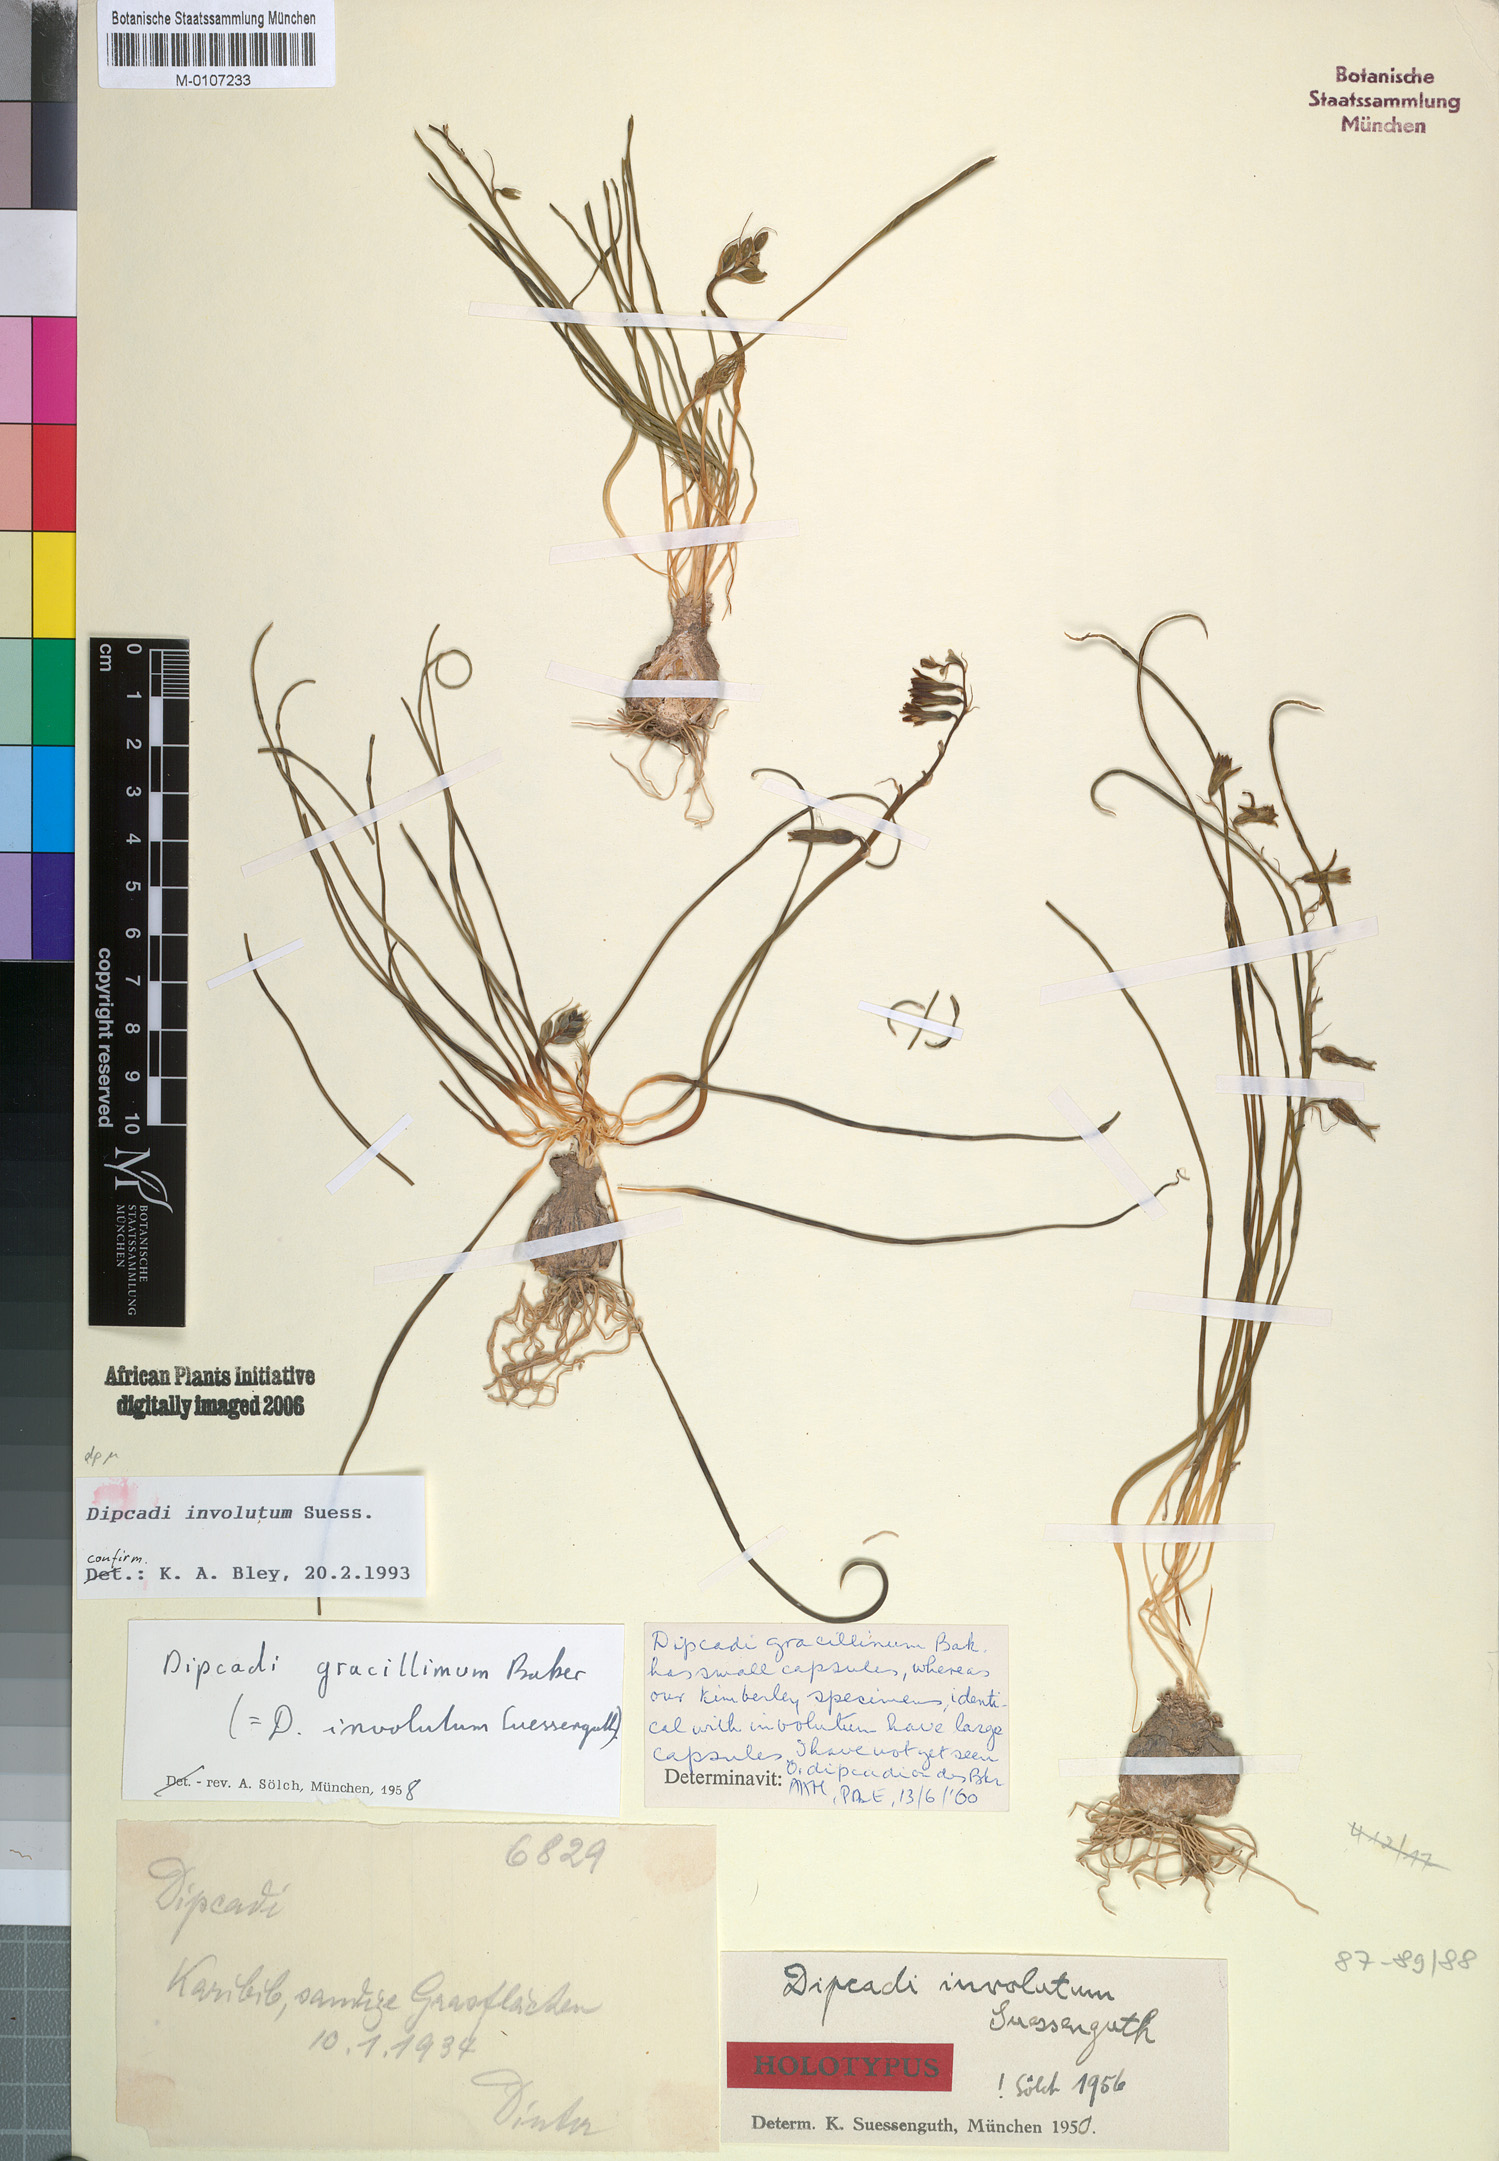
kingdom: Plantae
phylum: Tracheophyta
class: Liliopsida
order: Asparagales
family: Asparagaceae
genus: Dipcadi
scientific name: Dipcadi gracillimum
